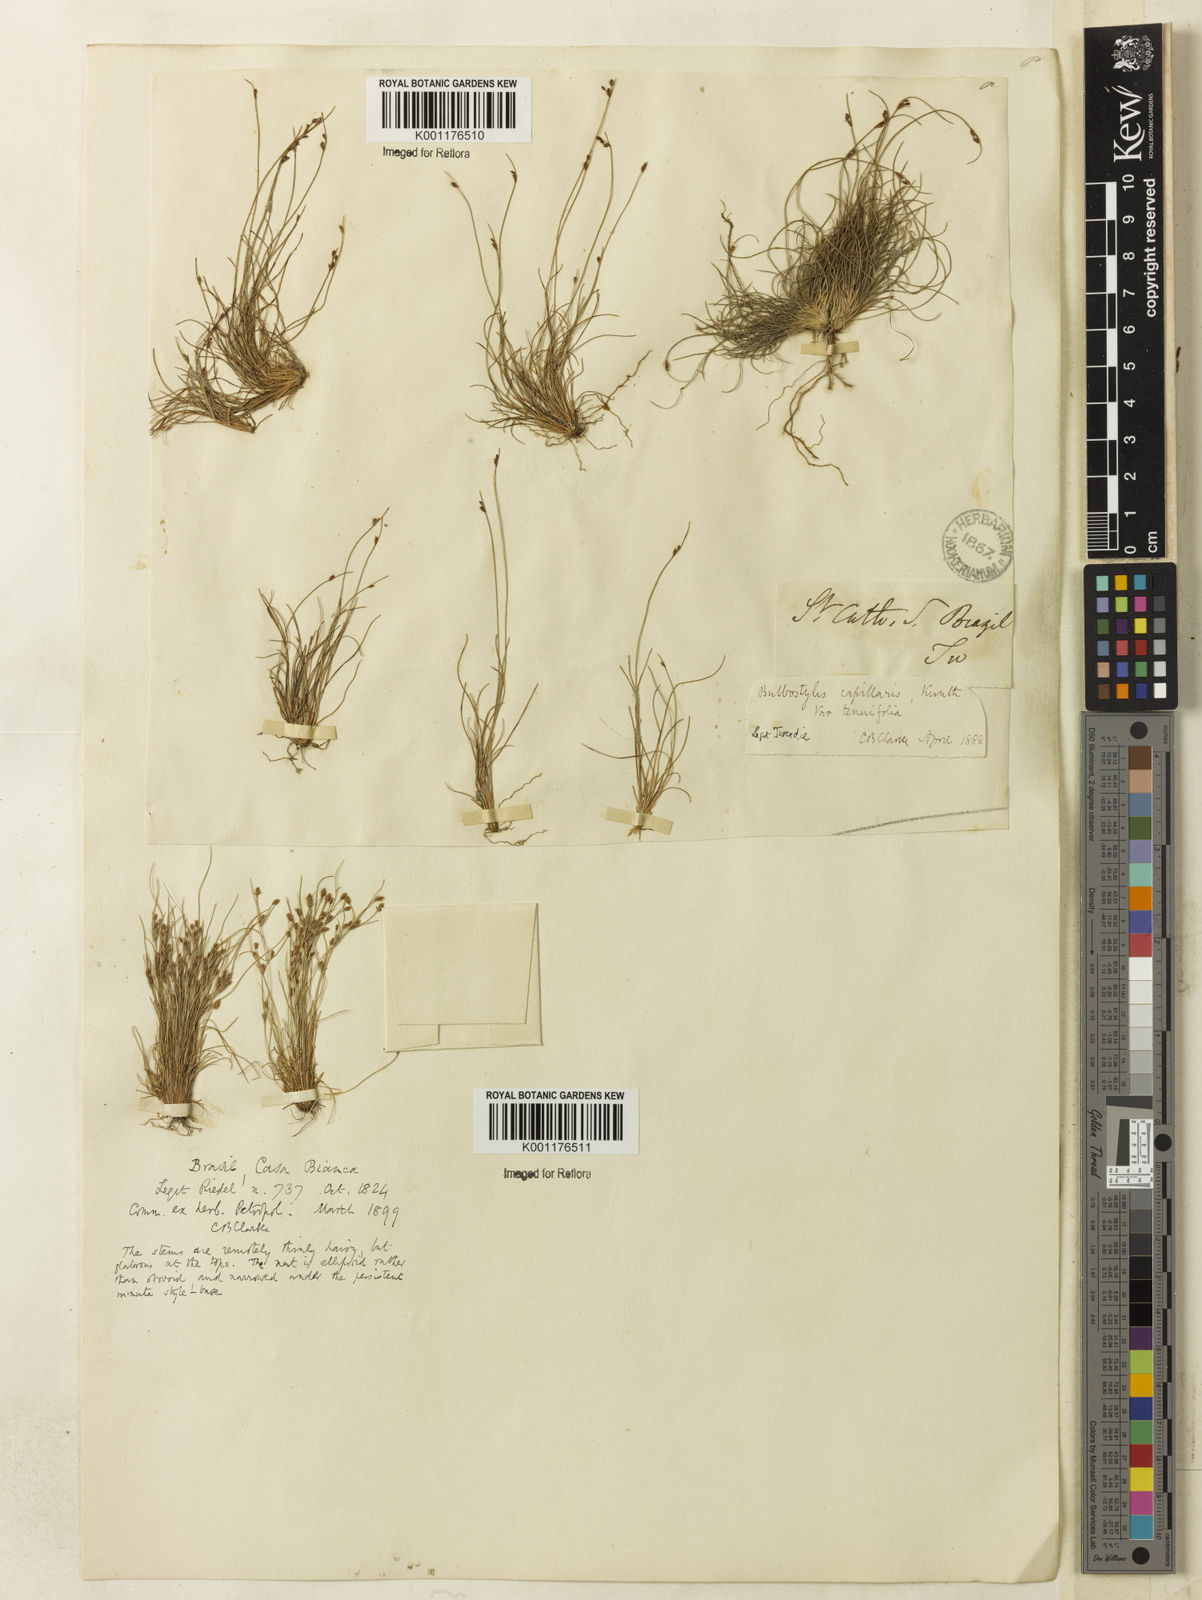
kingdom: Plantae
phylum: Tracheophyta
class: Liliopsida
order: Poales
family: Cyperaceae
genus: Bulbostylis
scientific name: Bulbostylis tenuifolia
